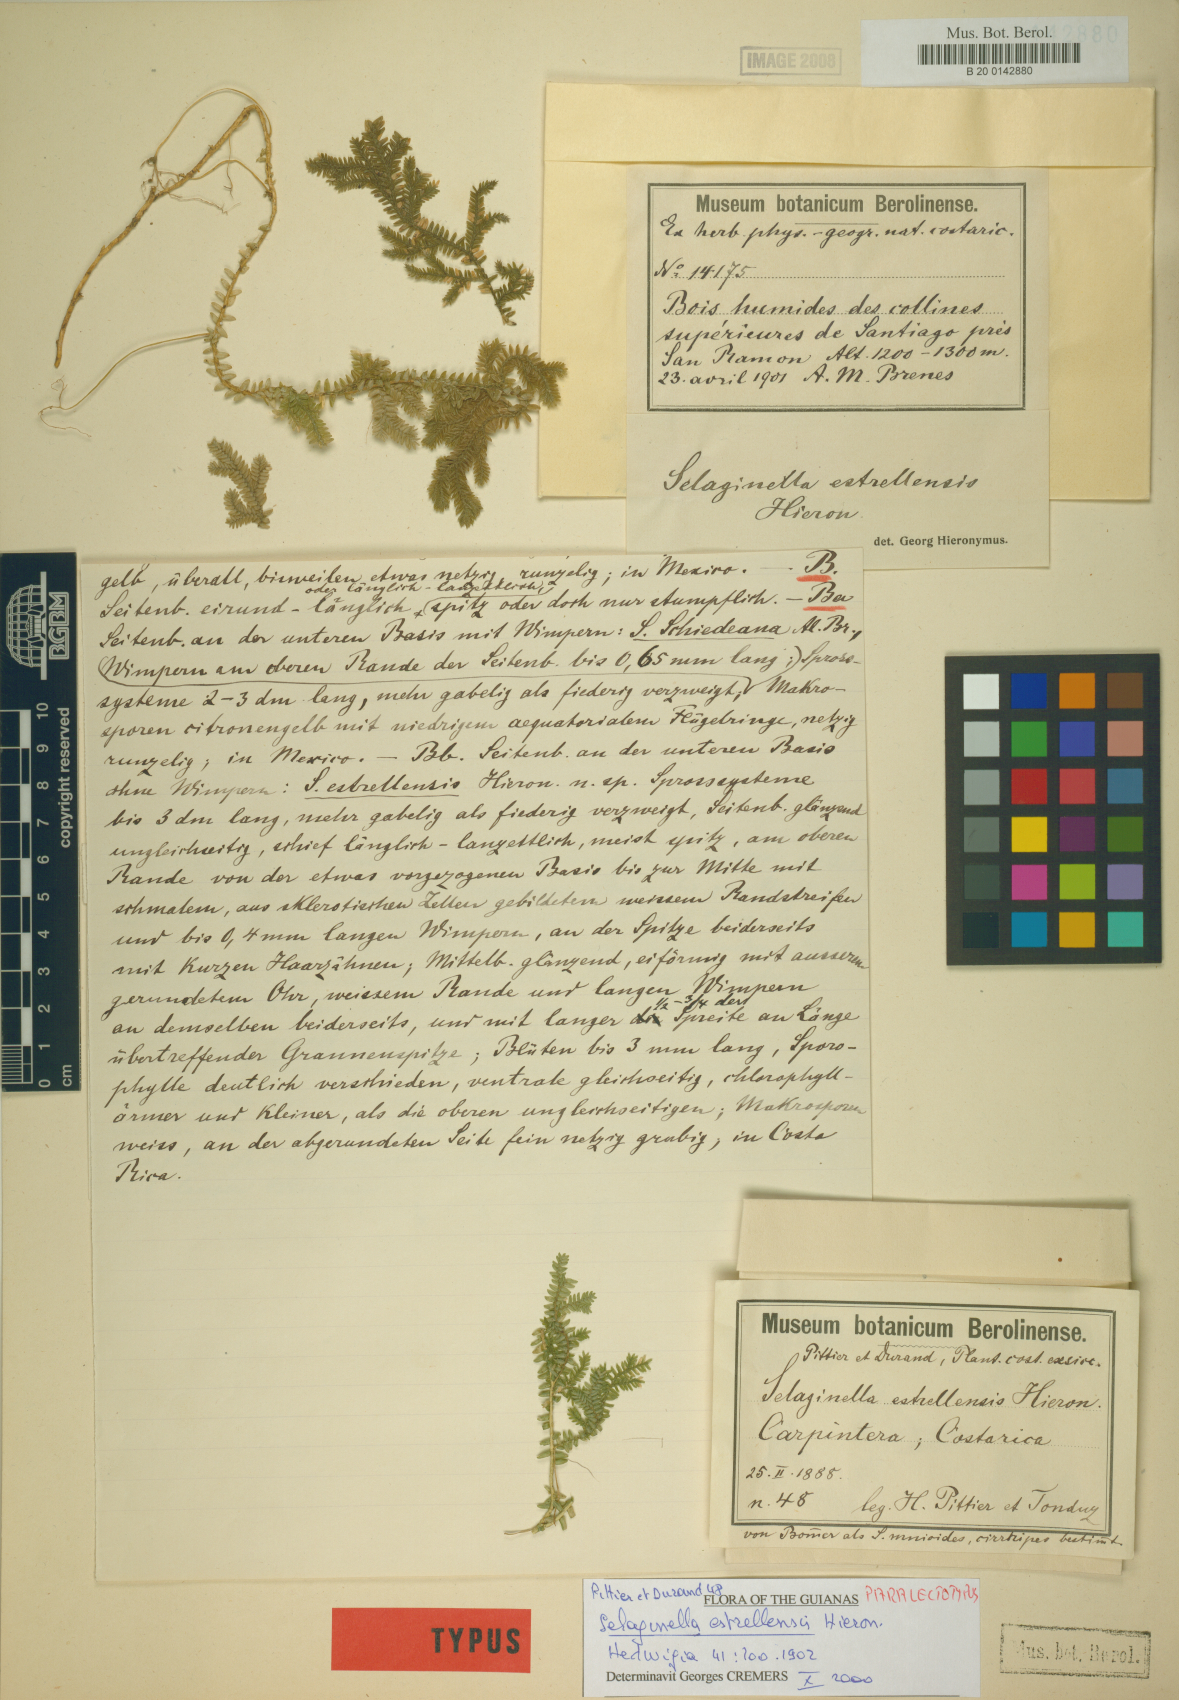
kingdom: Plantae
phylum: Tracheophyta
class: Lycopodiopsida
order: Selaginellales
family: Selaginellaceae
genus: Selaginella
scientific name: Selaginella estrellensis
